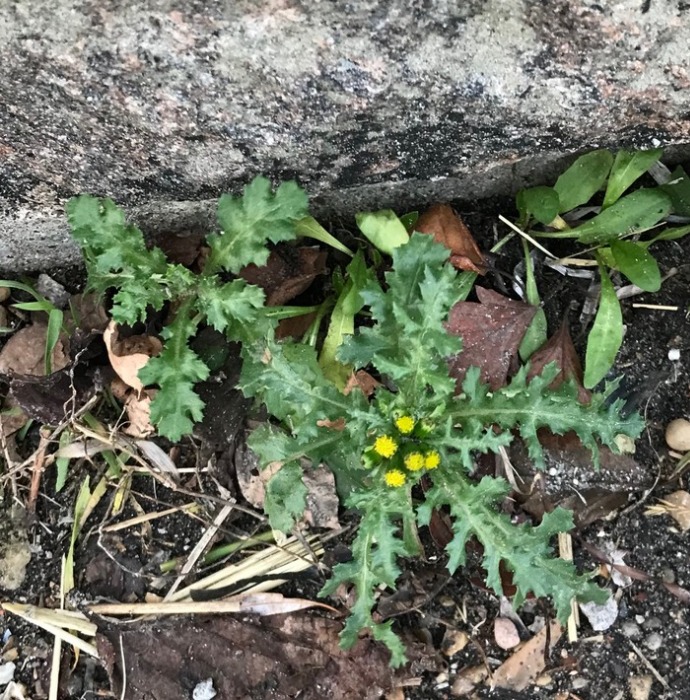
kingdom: Plantae
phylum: Tracheophyta
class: Magnoliopsida
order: Asterales
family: Asteraceae
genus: Senecio
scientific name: Senecio vulgaris
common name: Almindelig brandbæger
